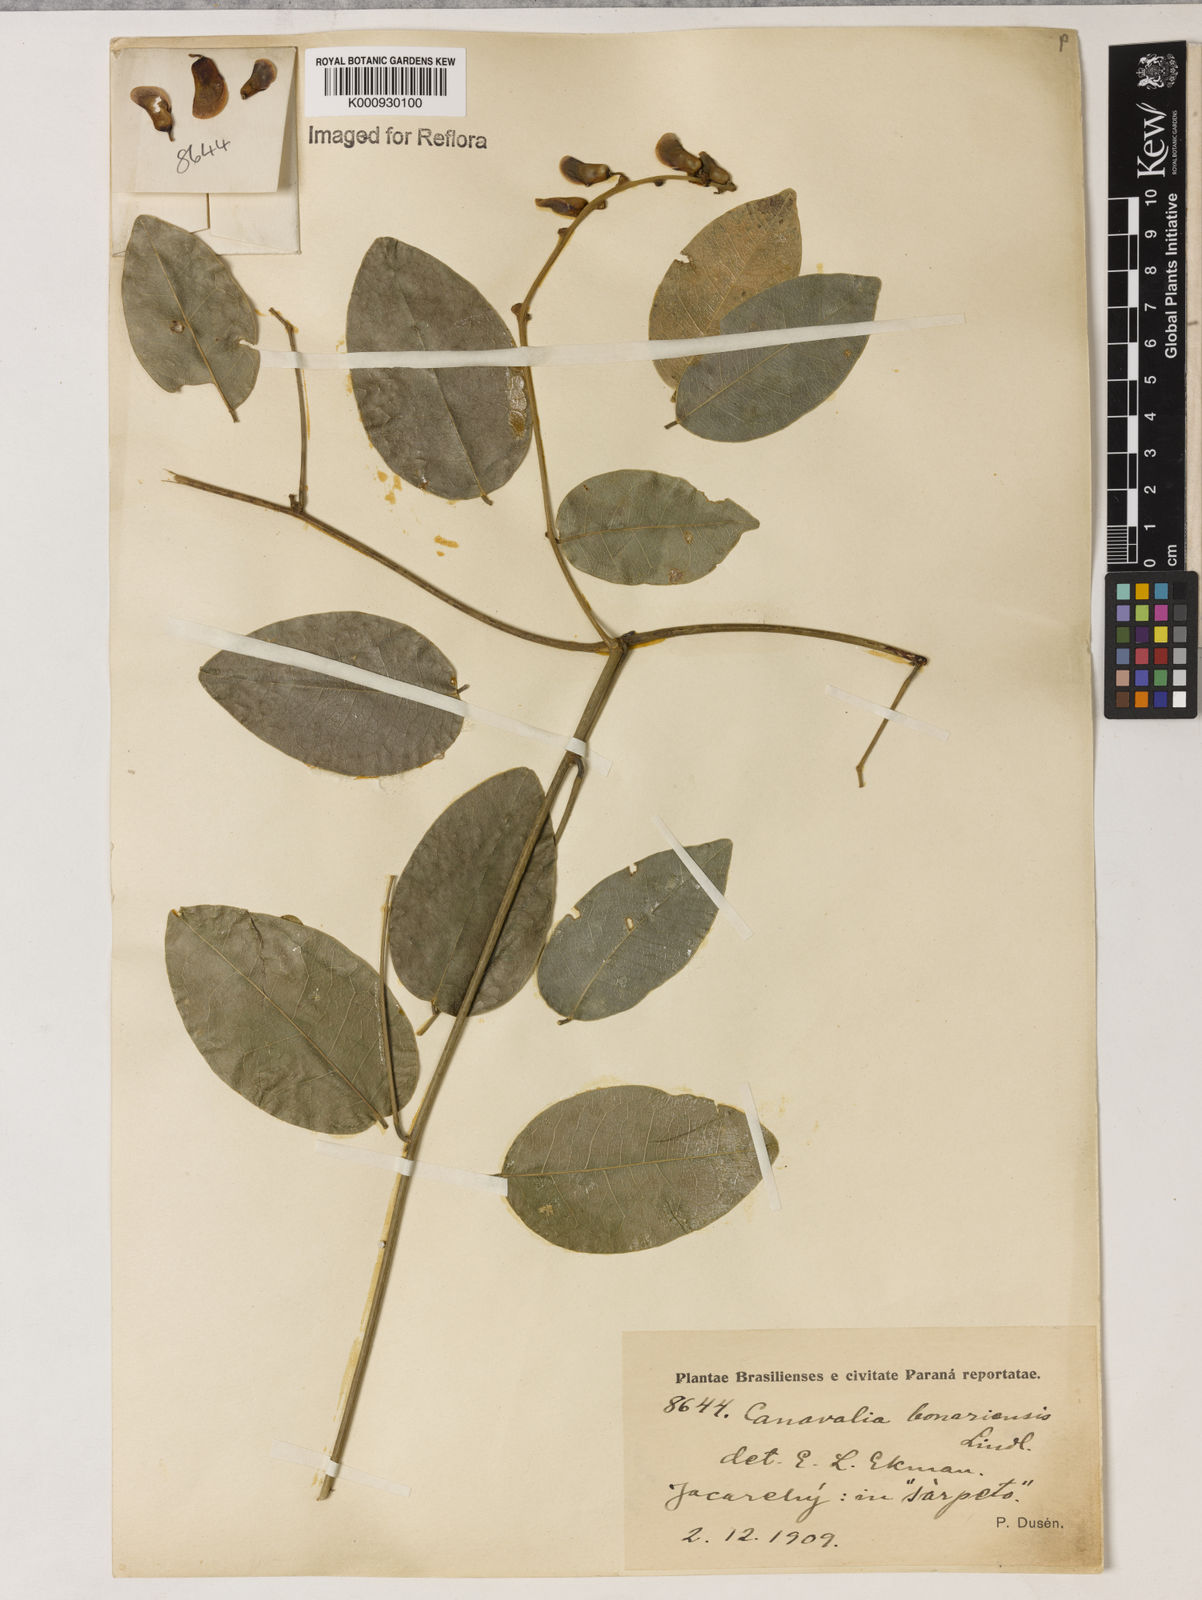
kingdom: Plantae
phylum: Tracheophyta
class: Magnoliopsida
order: Fabales
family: Fabaceae
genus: Canavalia
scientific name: Canavalia bonariensis
